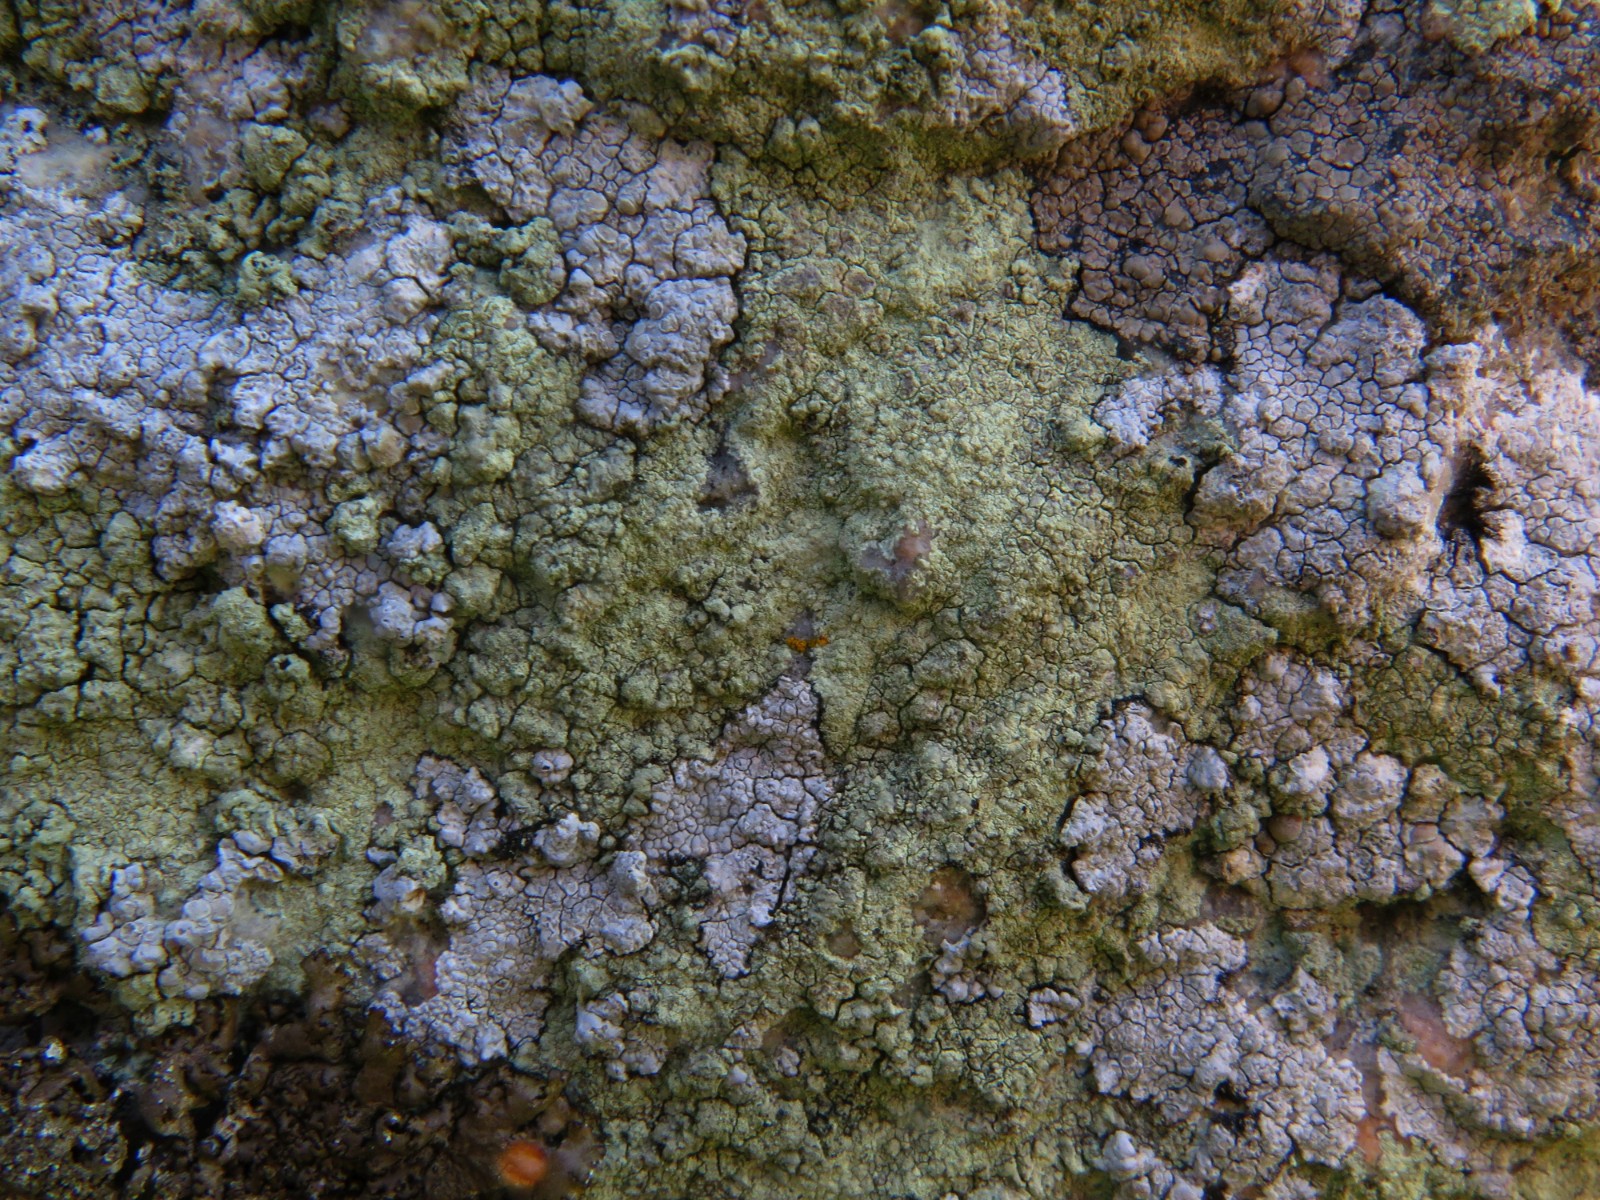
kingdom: Fungi
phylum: Ascomycota
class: Lecanoromycetes
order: Lecanorales
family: Lecanoraceae
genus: Glaucomaria
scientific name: Glaucomaria sulphurea
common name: svovlgul kantskivelav
